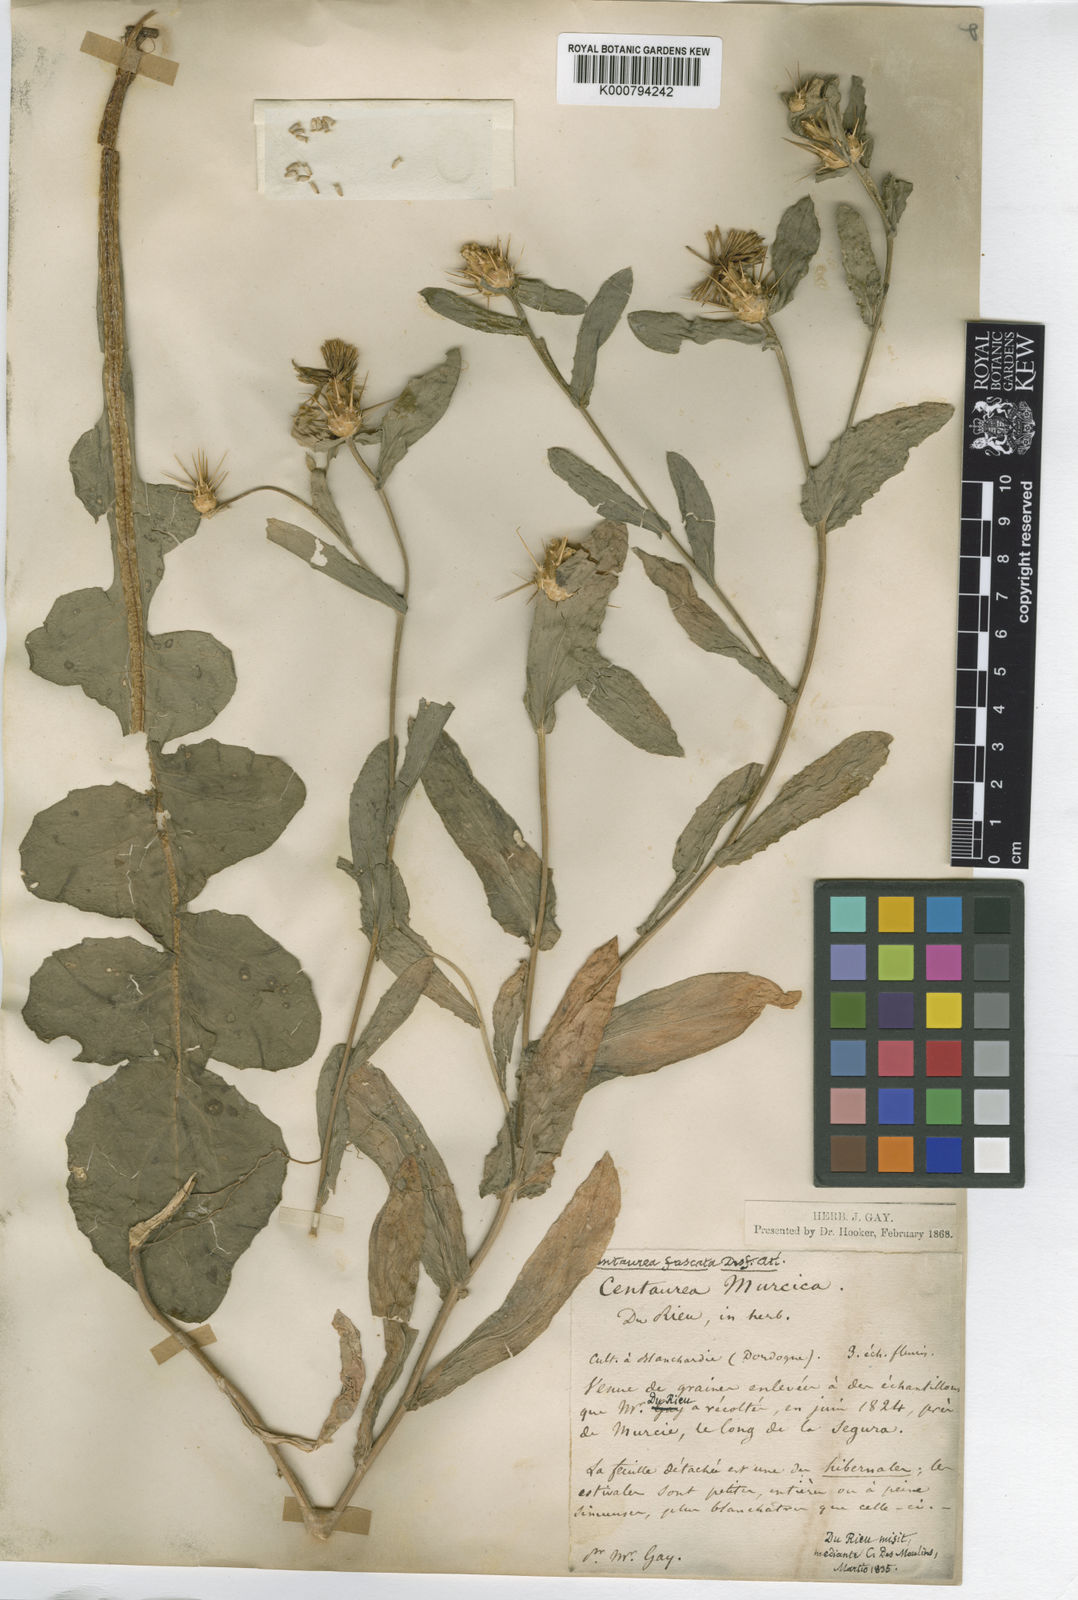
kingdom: Plantae
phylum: Tracheophyta
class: Magnoliopsida
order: Asterales
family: Asteraceae
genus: Centaurea
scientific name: Centaurea
